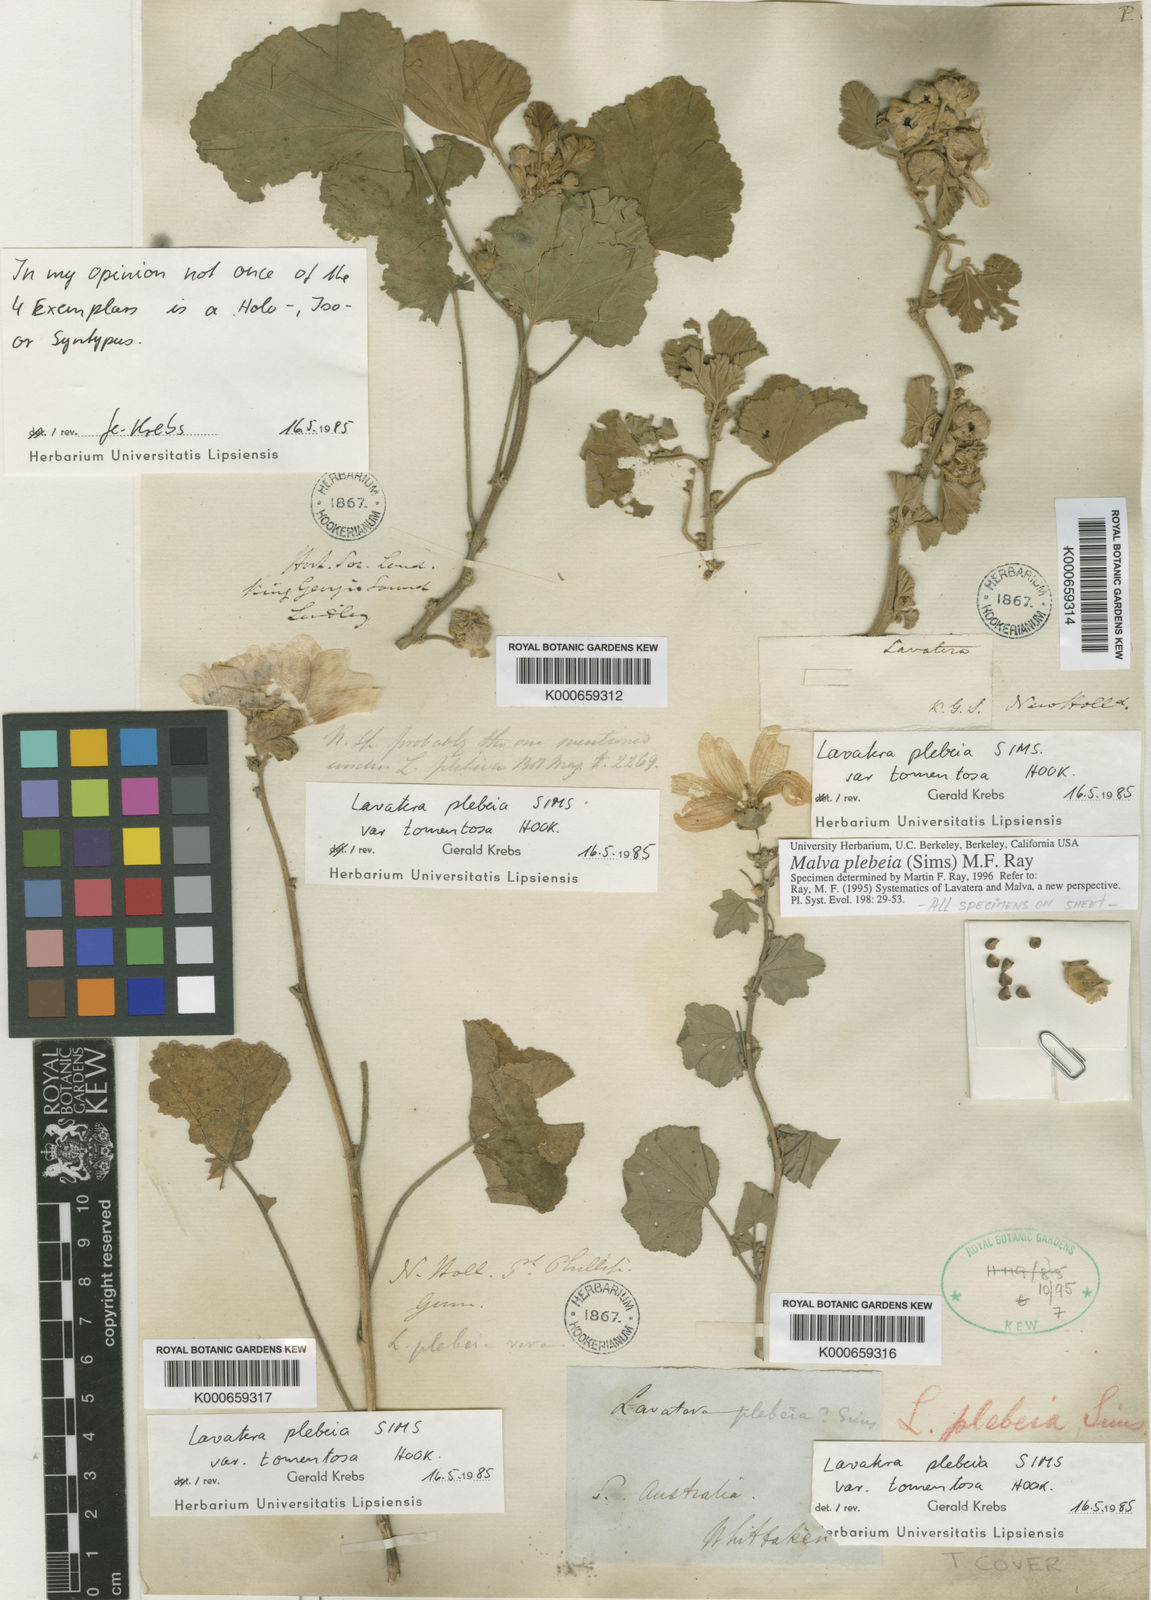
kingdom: Plantae
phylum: Tracheophyta
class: Magnoliopsida
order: Malvales
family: Malvaceae
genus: Malva
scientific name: Malva
